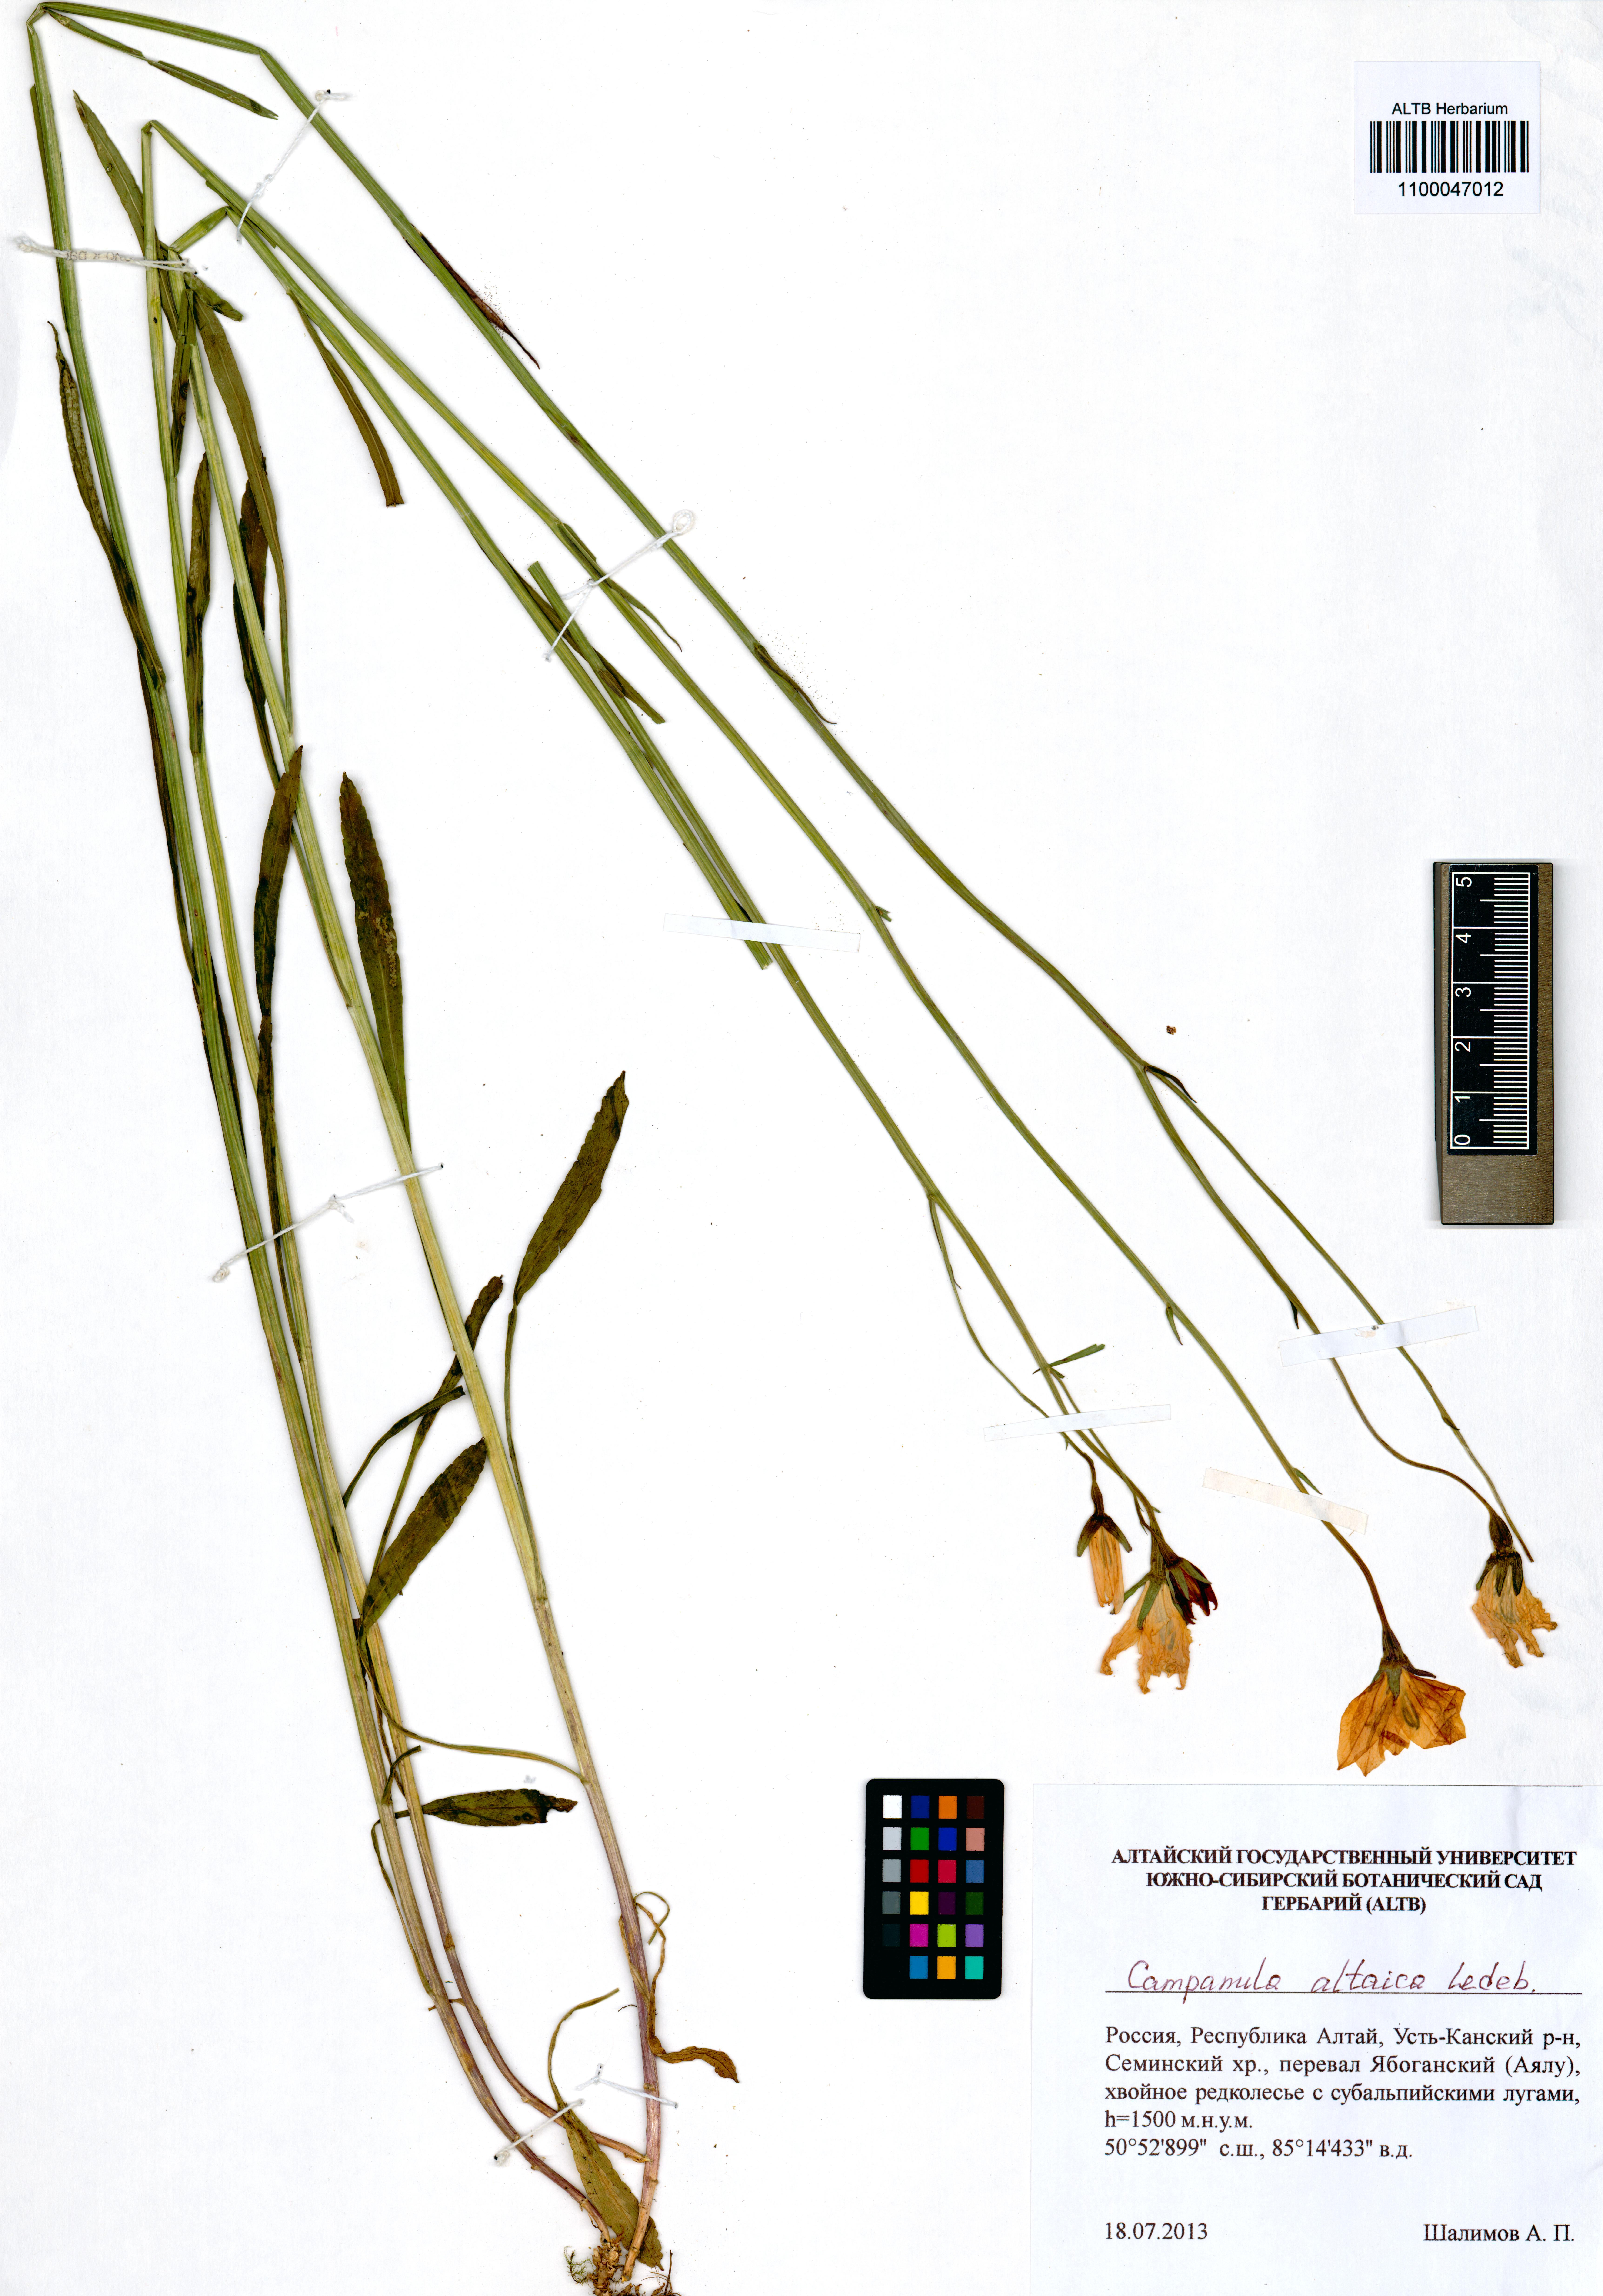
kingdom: Plantae
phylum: Tracheophyta
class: Magnoliopsida
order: Asterales
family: Campanulaceae
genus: Campanula
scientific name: Campanula stevenii
